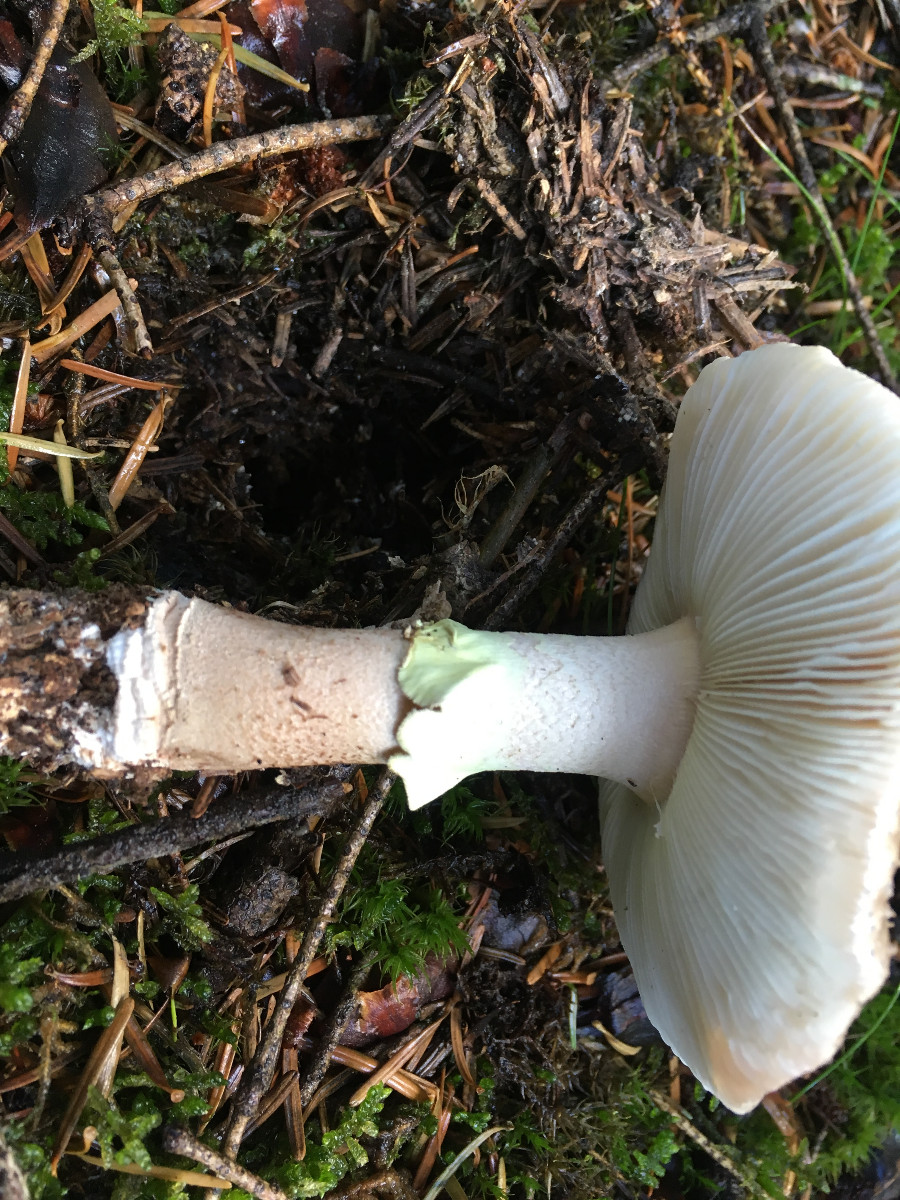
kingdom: Fungi
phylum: Basidiomycota
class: Agaricomycetes
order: Agaricales
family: Amanitaceae
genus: Amanita
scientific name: Amanita rubescens
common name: rødmende fluesvamp
